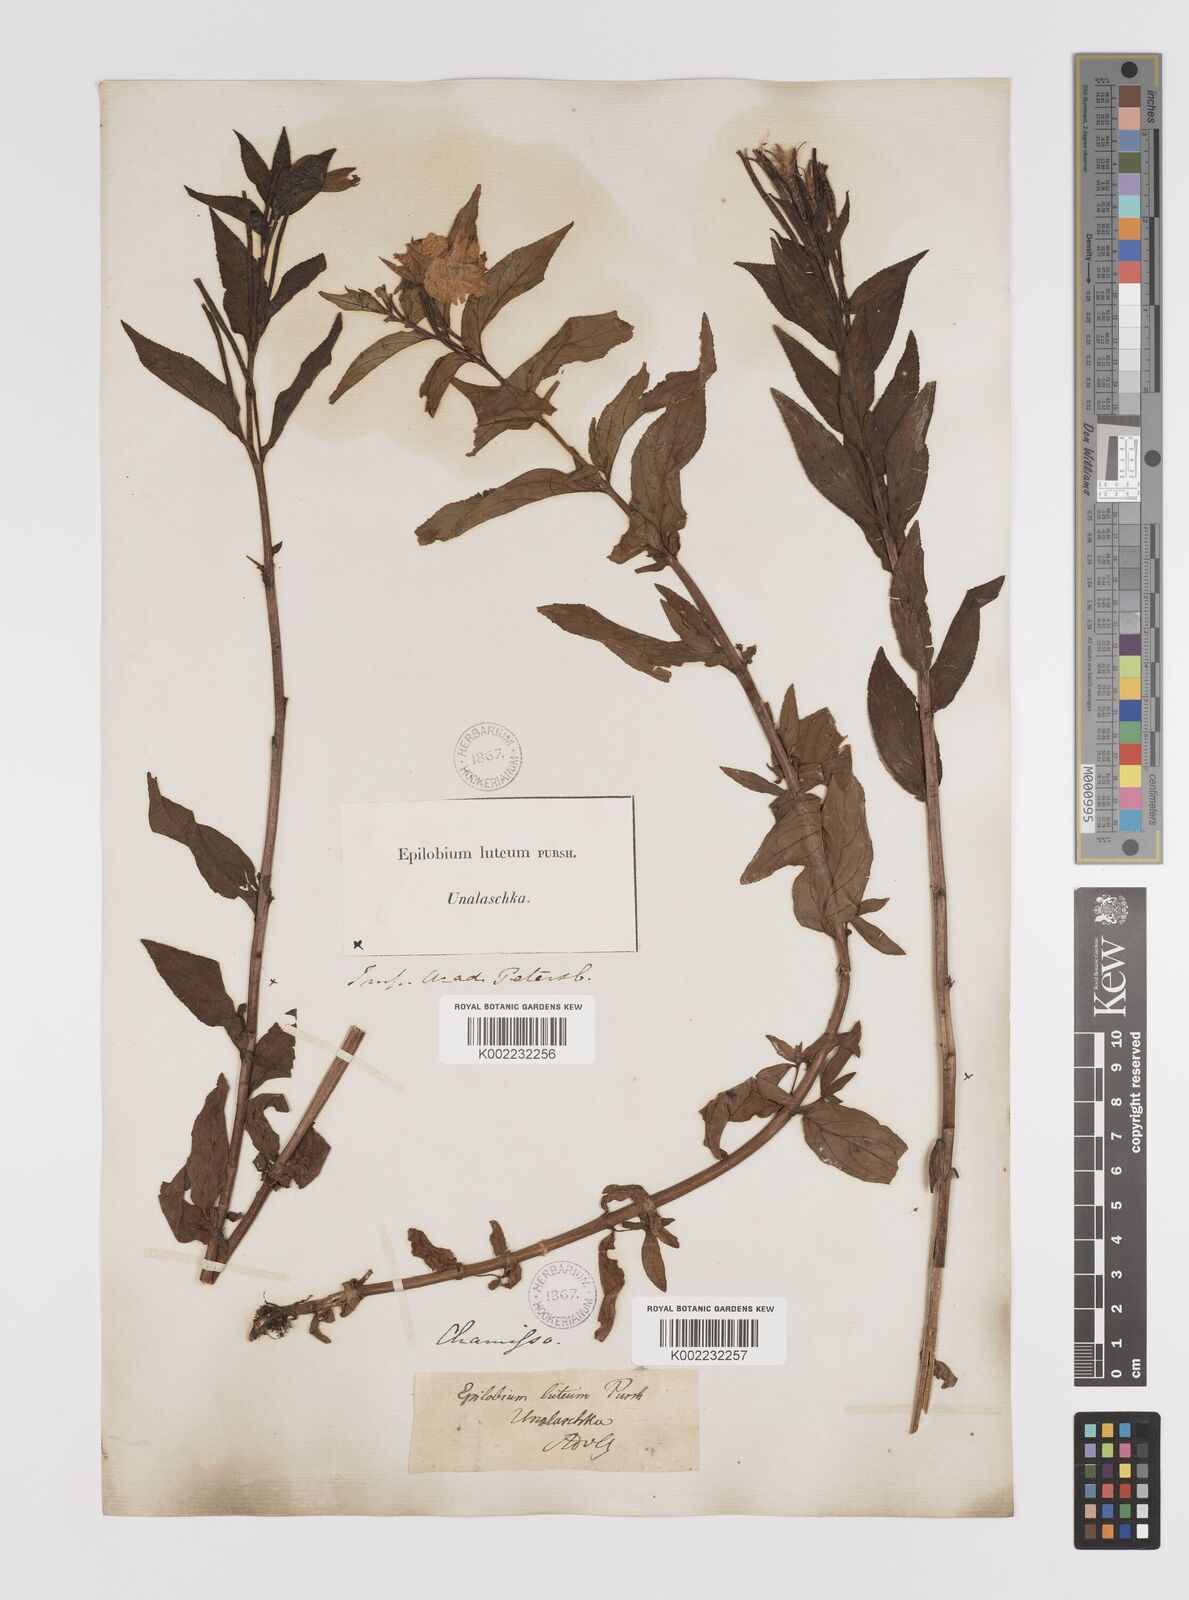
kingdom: Plantae
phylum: Tracheophyta
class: Magnoliopsida
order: Myrtales
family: Onagraceae
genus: Epilobium
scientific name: Epilobium luteum
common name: Yellow willowherb
